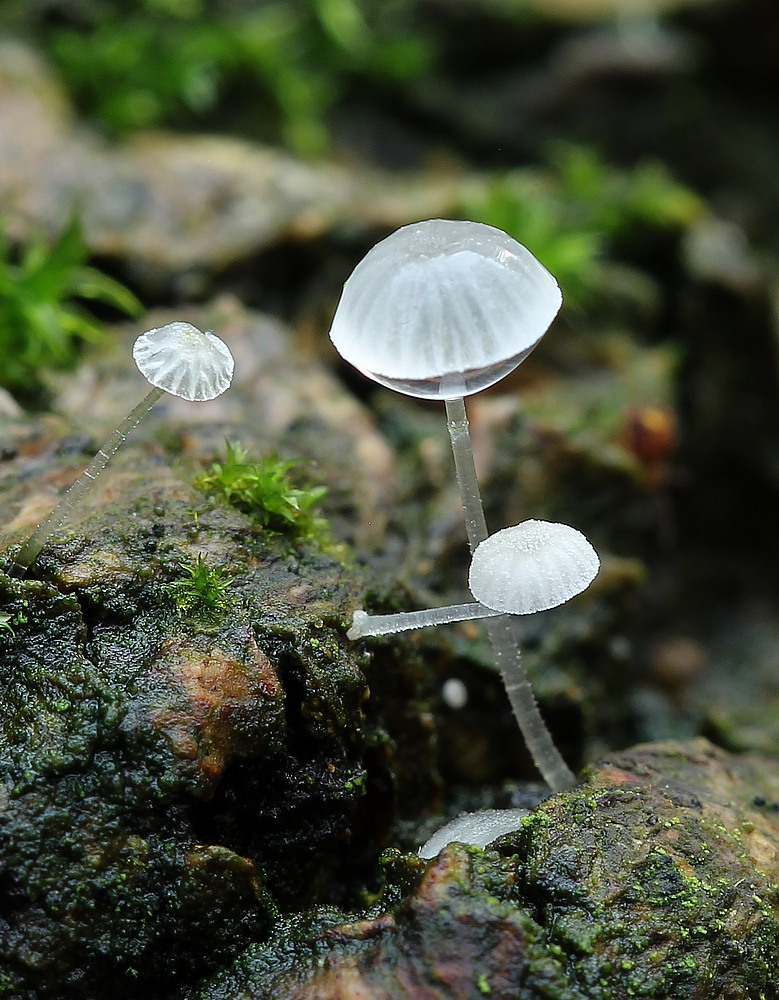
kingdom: Fungi
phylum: Basidiomycota
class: Agaricomycetes
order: Agaricales
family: Mycenaceae
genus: Mycena
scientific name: Mycena tenerrima
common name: pudret huesvamp
